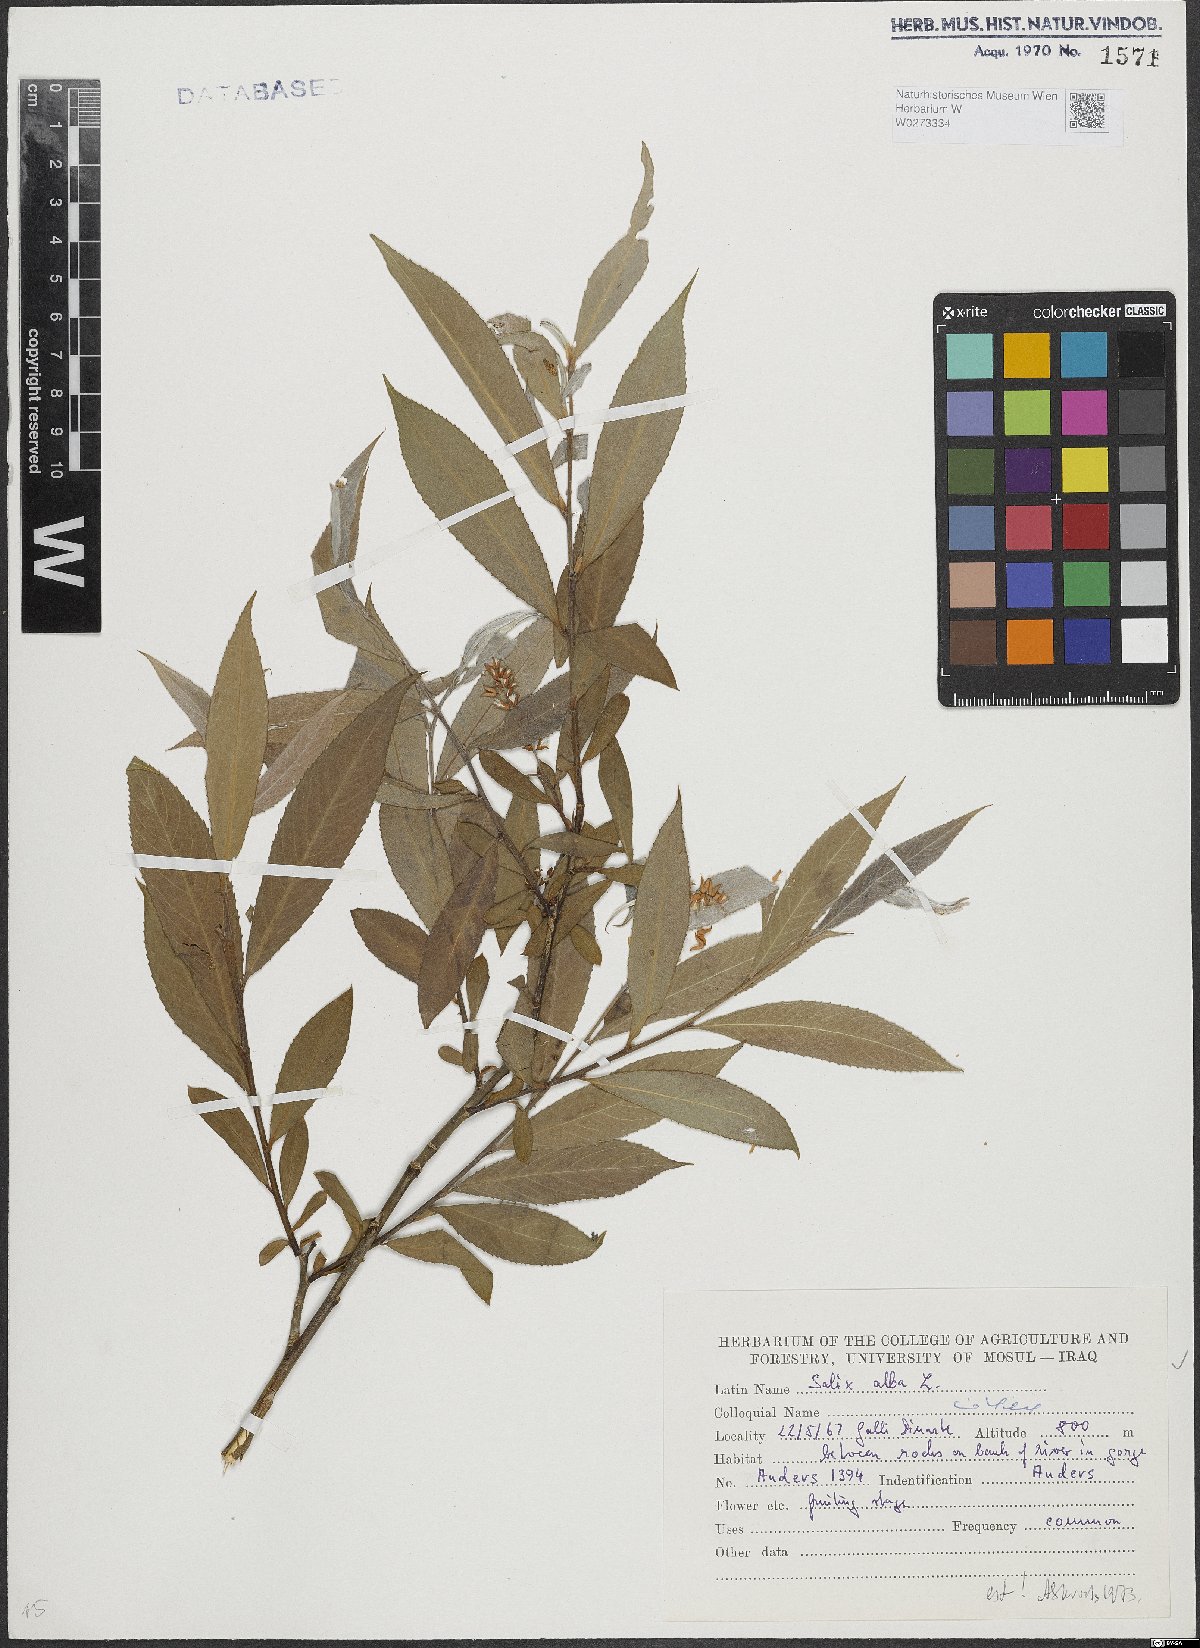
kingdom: Plantae
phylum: Tracheophyta
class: Magnoliopsida
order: Malpighiales
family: Salicaceae
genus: Salix
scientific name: Salix alba
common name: White willow
